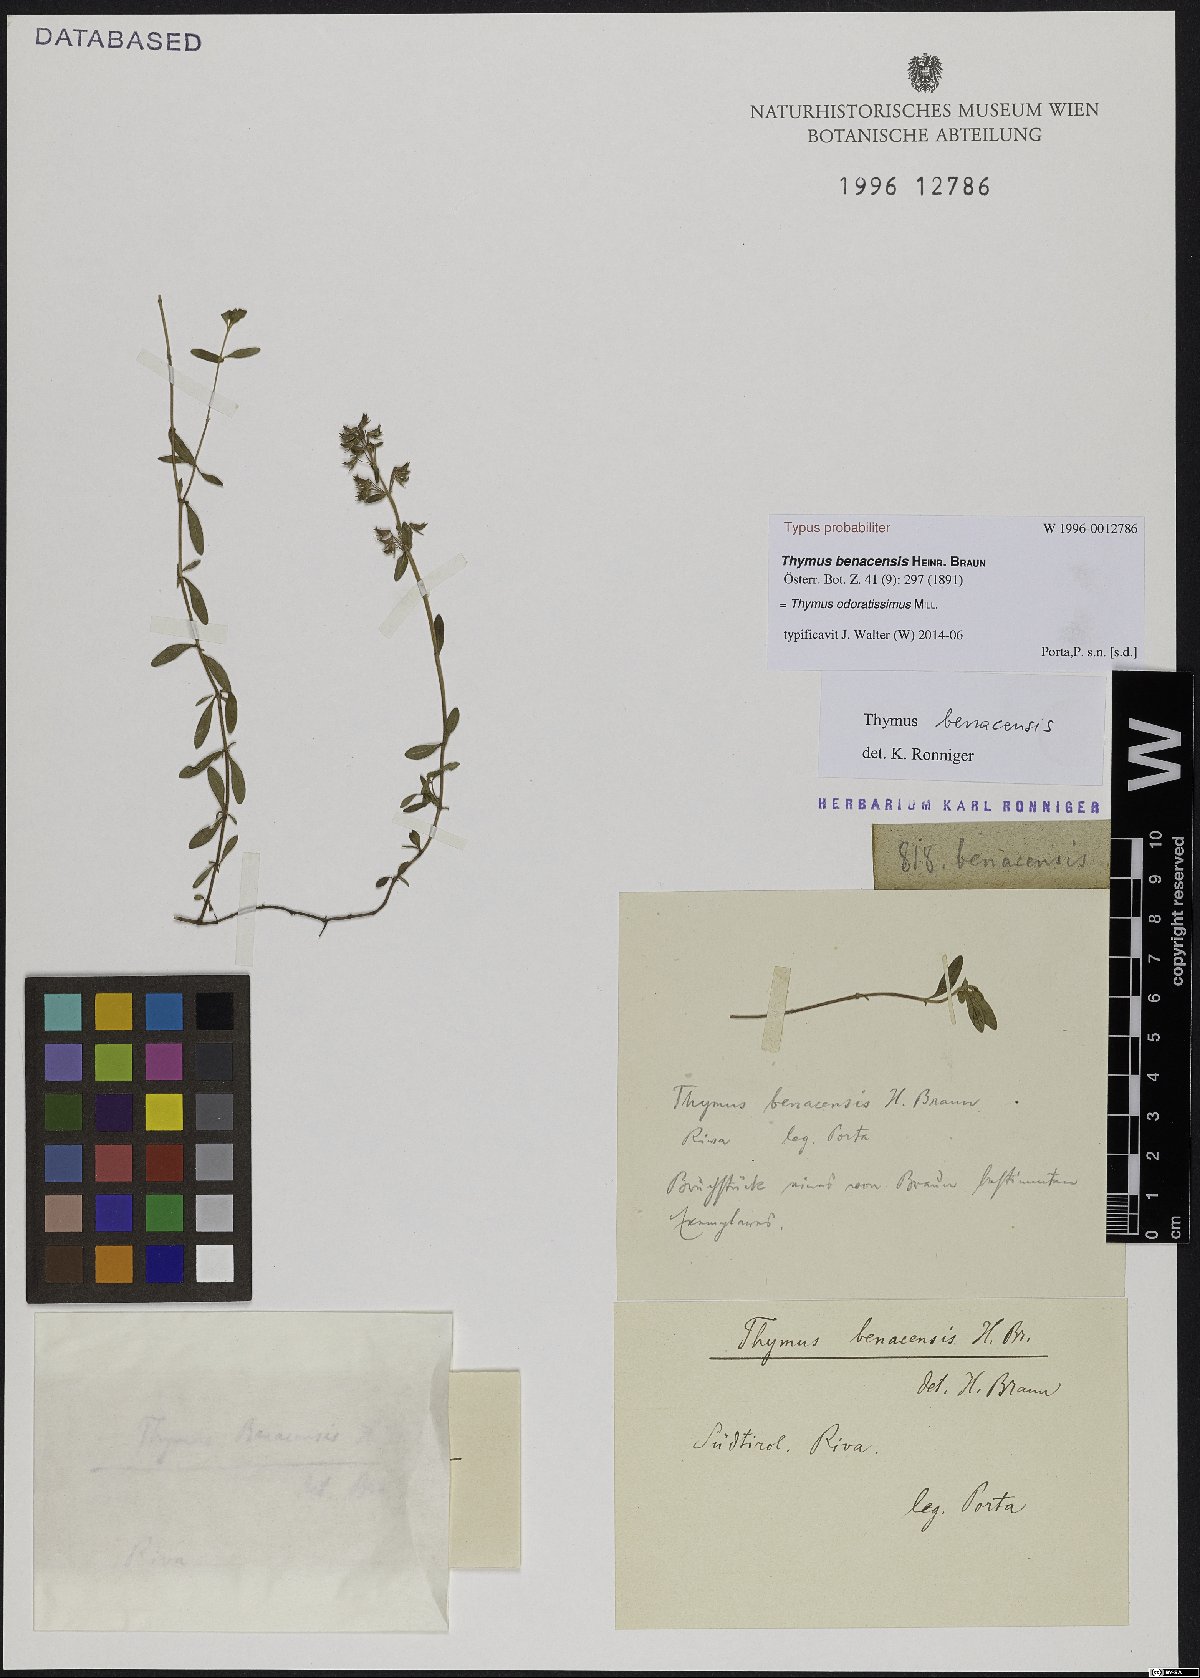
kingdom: Plantae
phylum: Tracheophyta
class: Magnoliopsida
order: Lamiales
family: Lamiaceae
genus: Thymus
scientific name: Thymus oenipontanus
